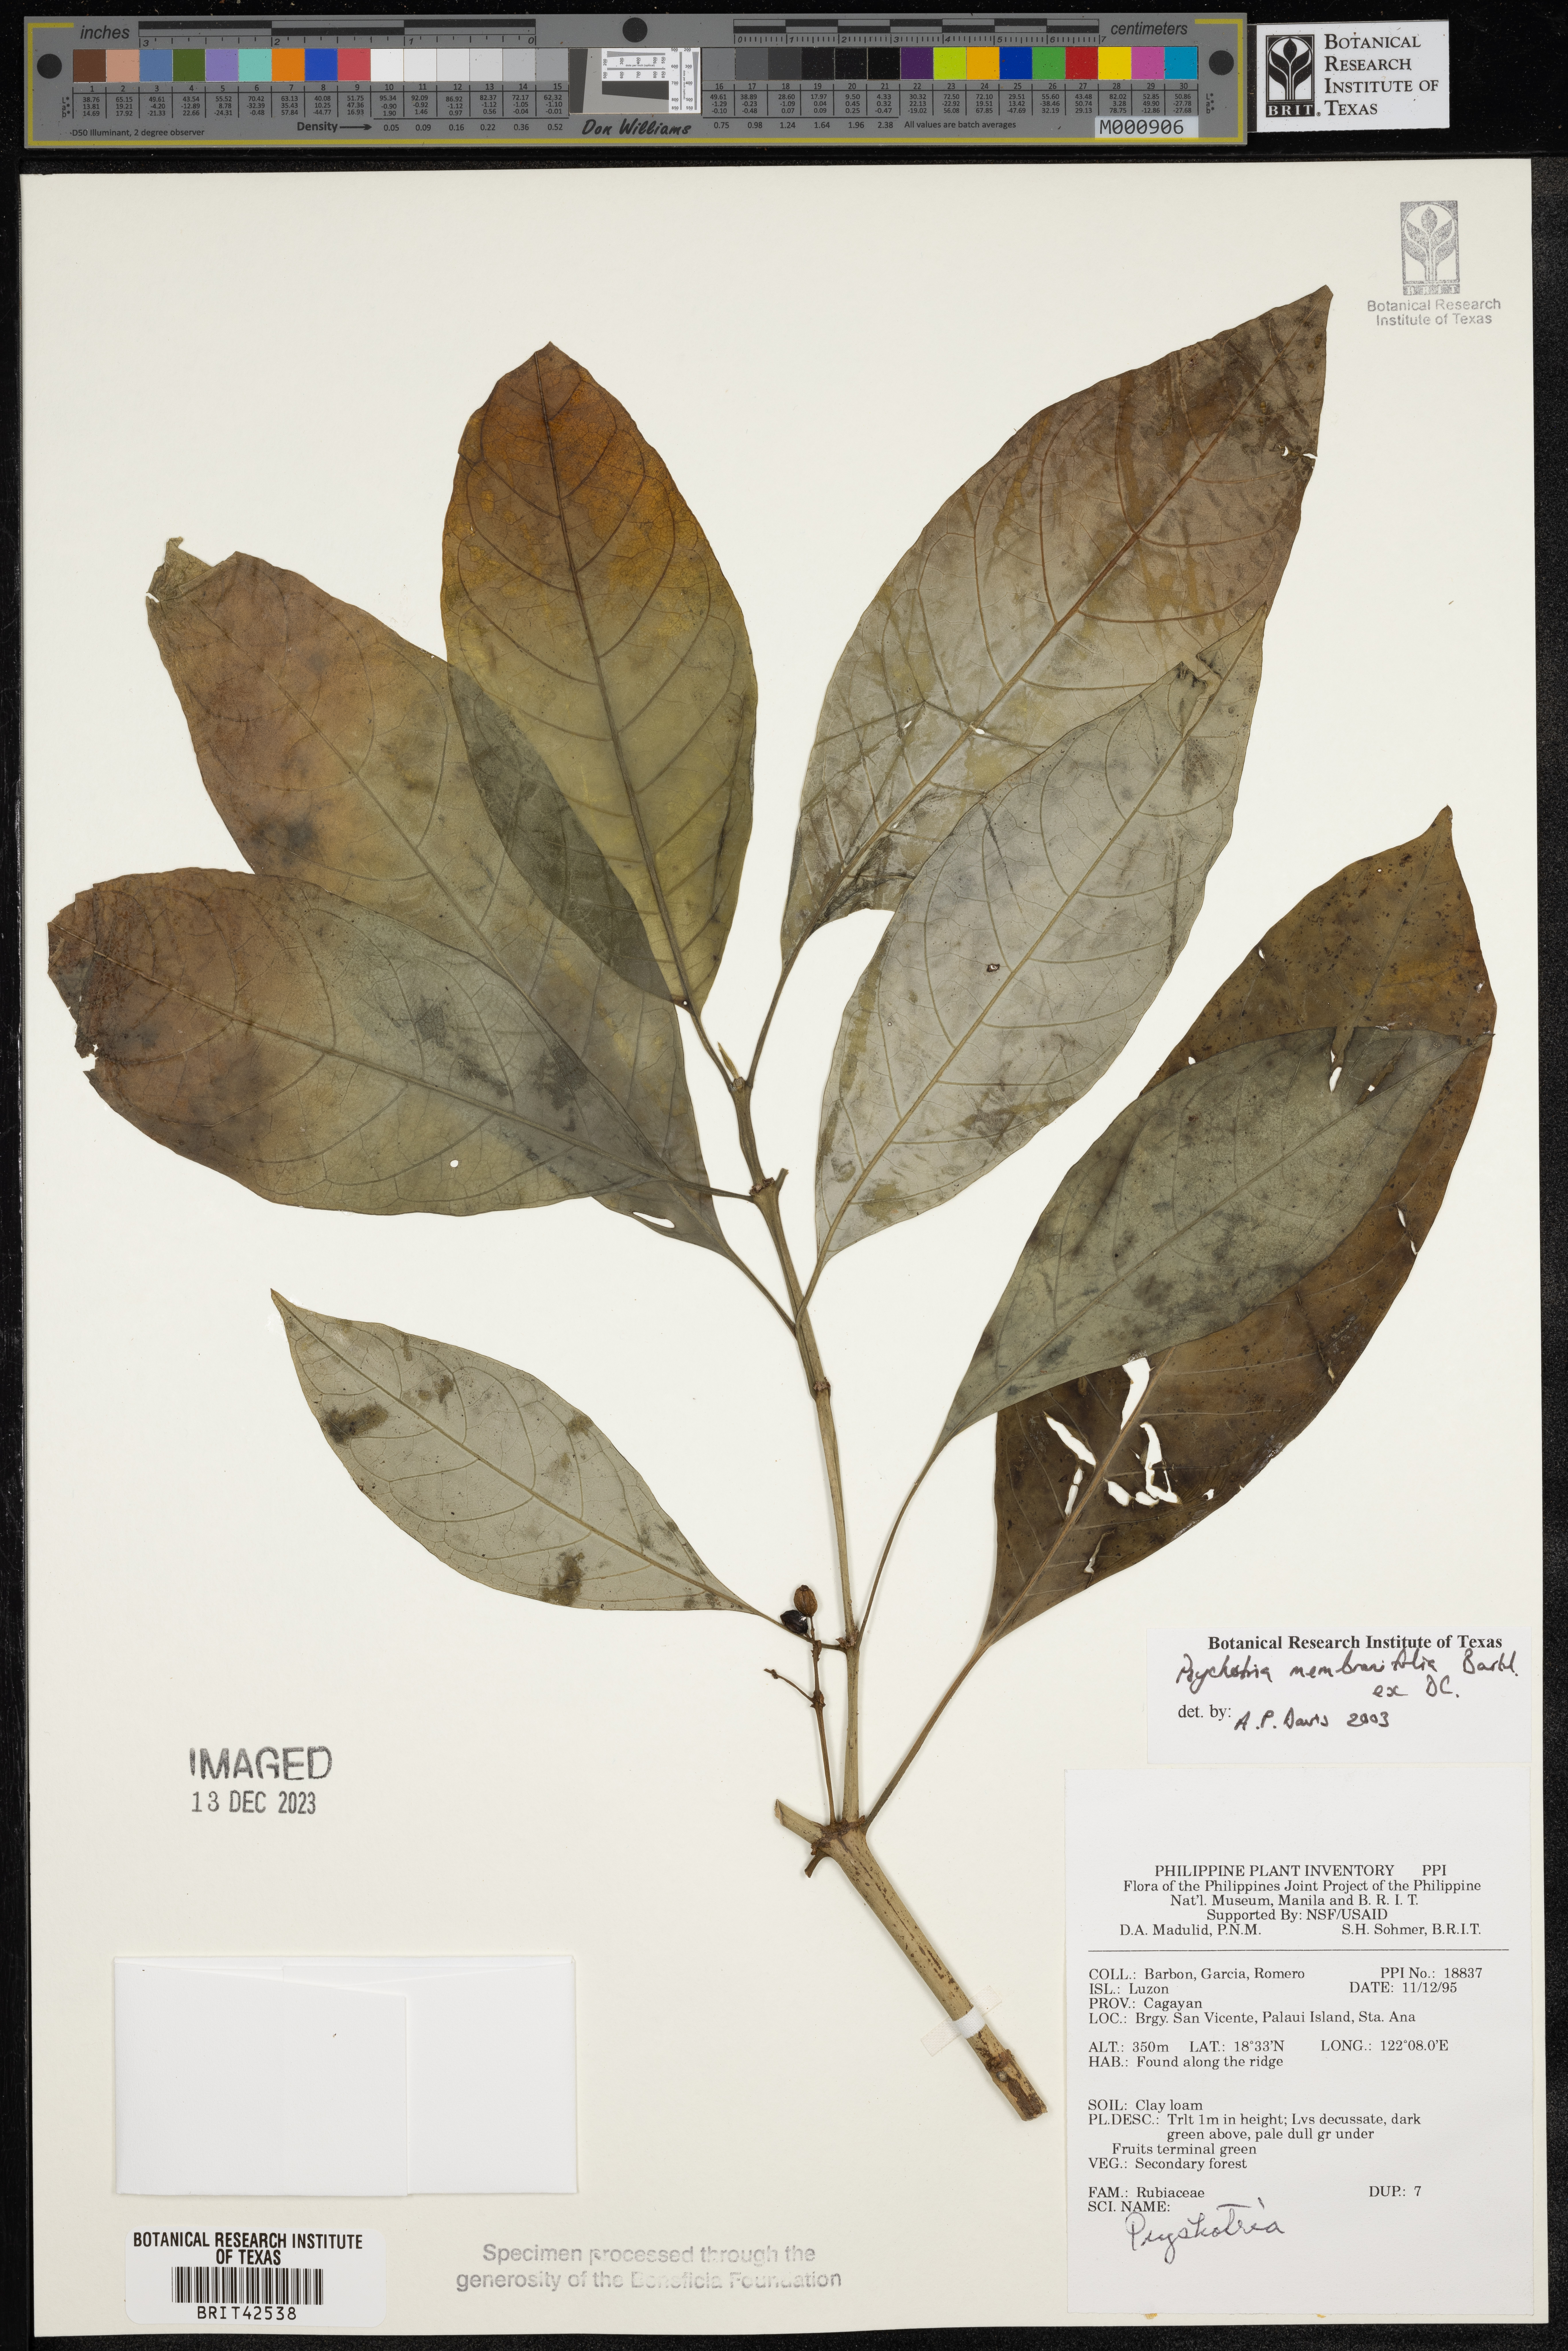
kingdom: Plantae
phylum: Tracheophyta
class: Magnoliopsida
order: Gentianales
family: Rubiaceae
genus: Eumachia
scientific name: Eumachia membranifolia
